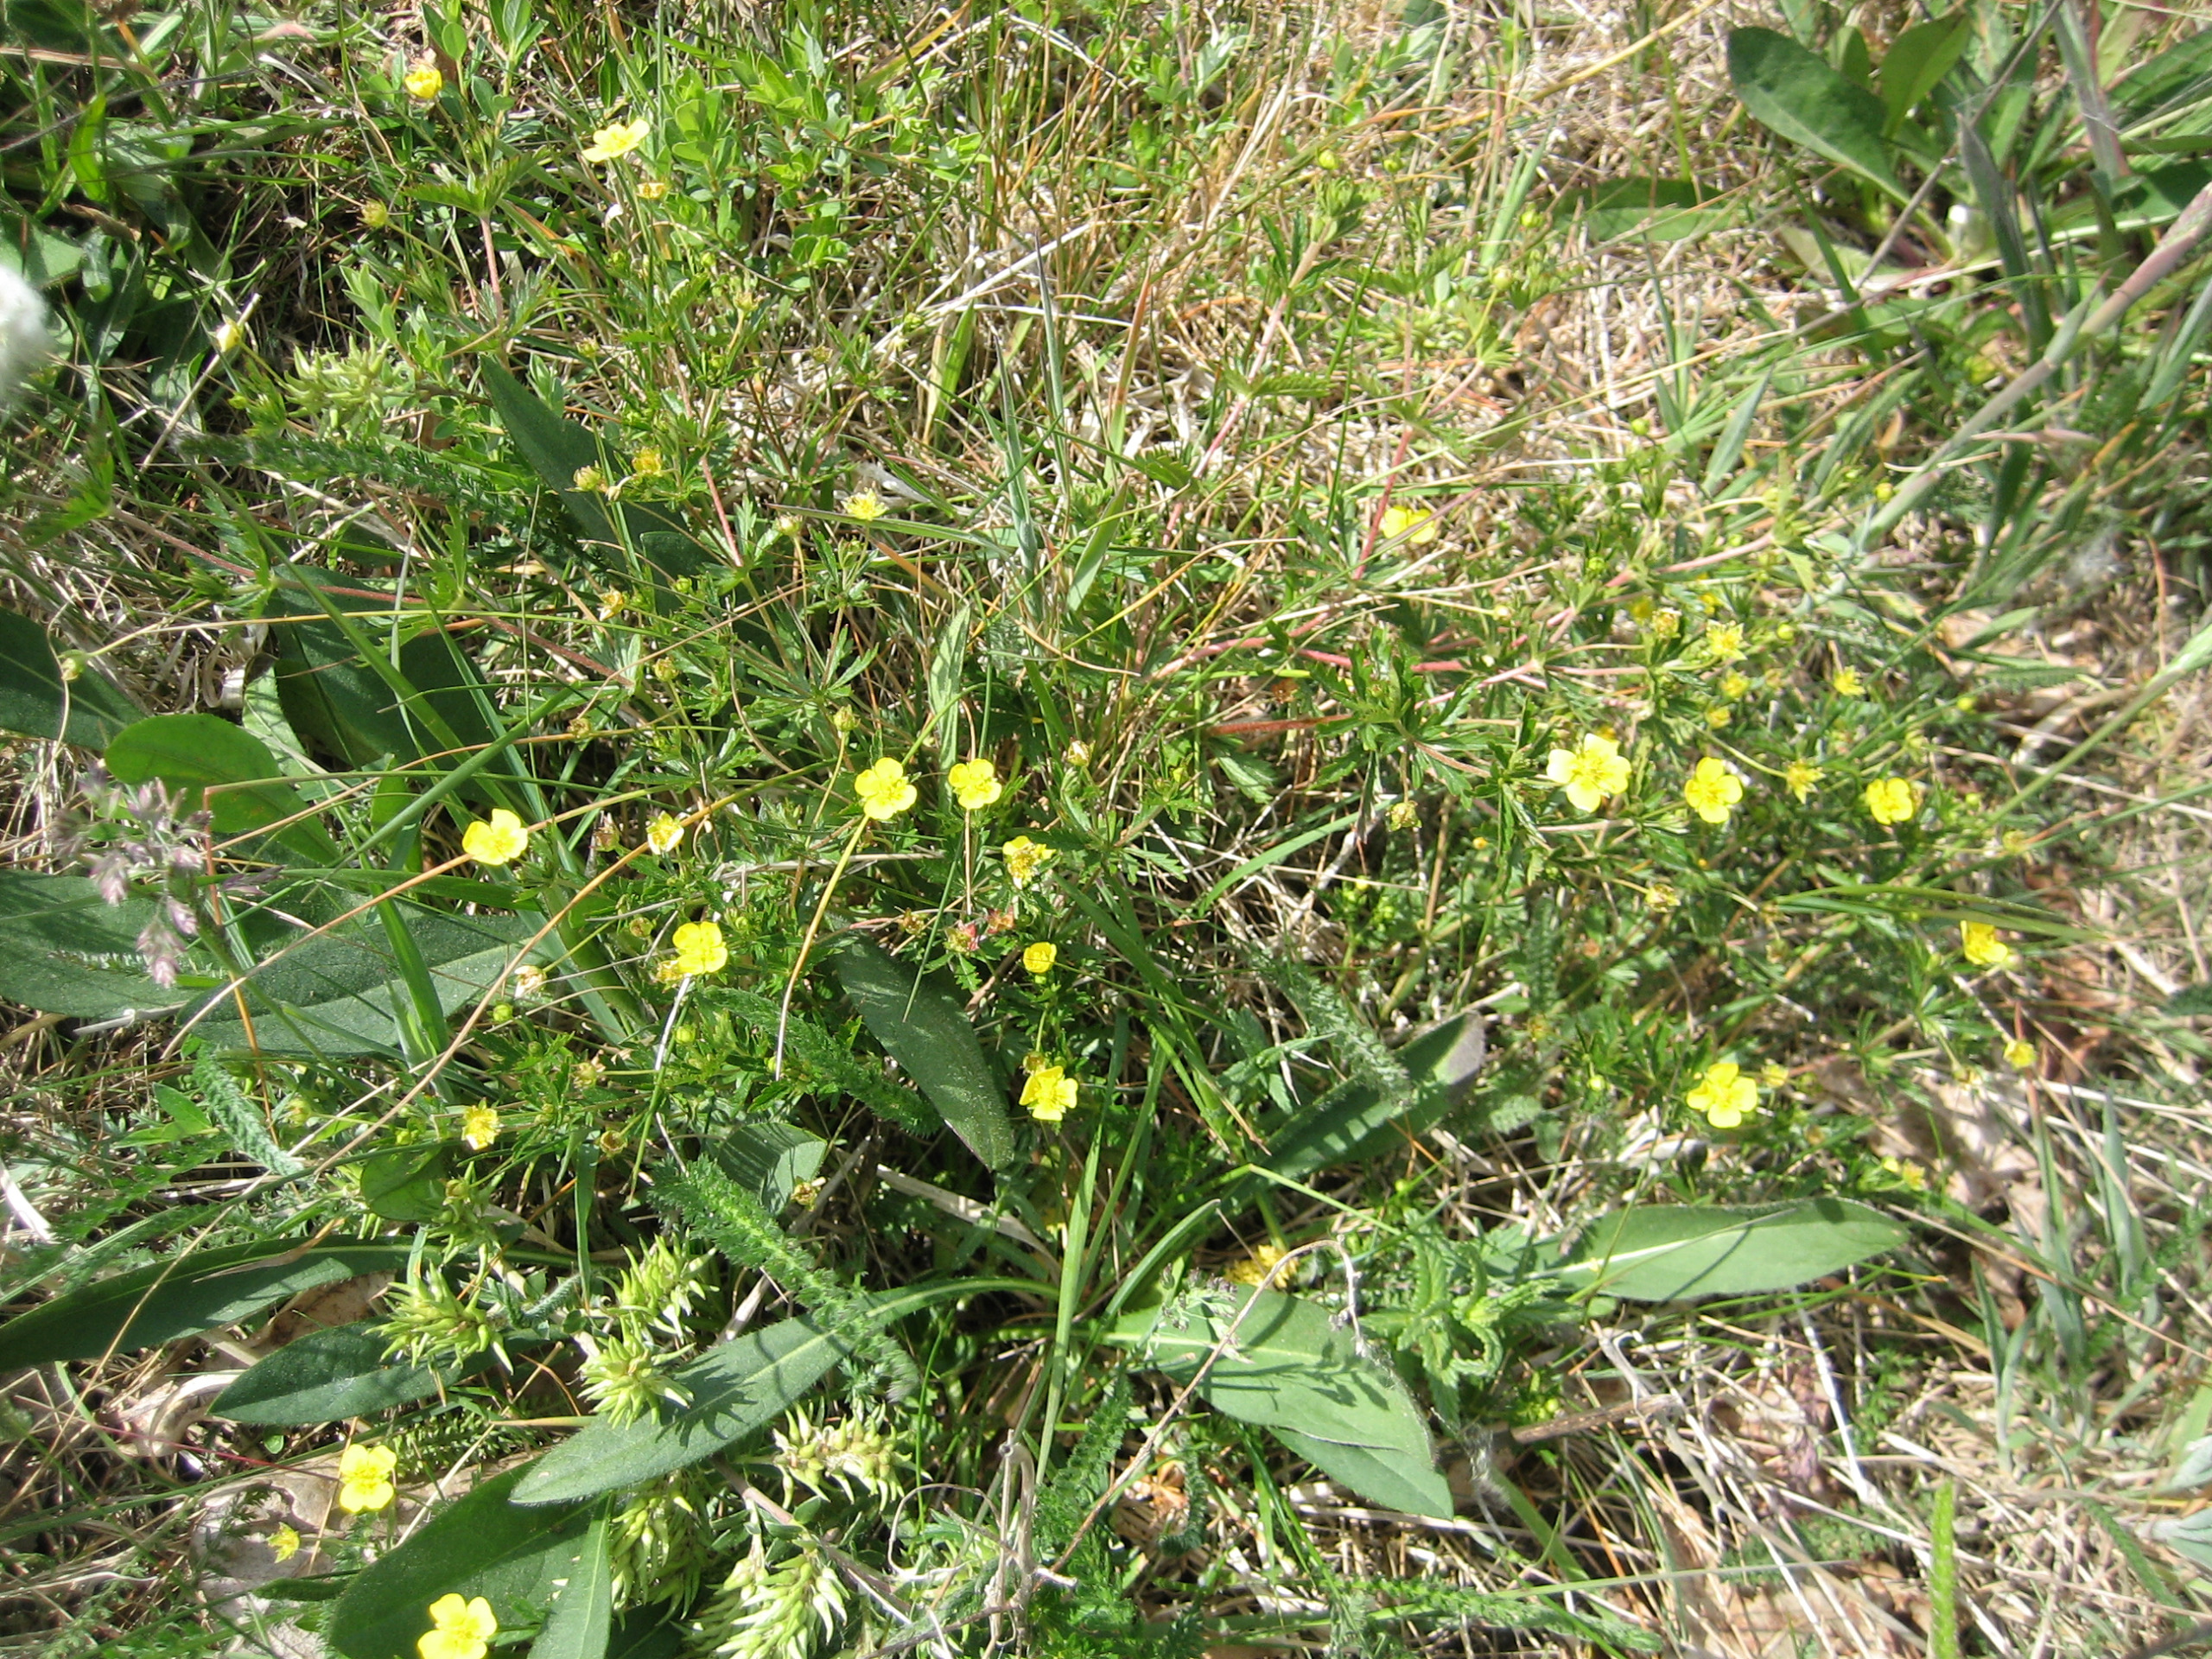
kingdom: Plantae
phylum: Tracheophyta
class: Magnoliopsida
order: Rosales
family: Rosaceae
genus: Potentilla
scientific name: Potentilla erecta
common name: Tormentil
